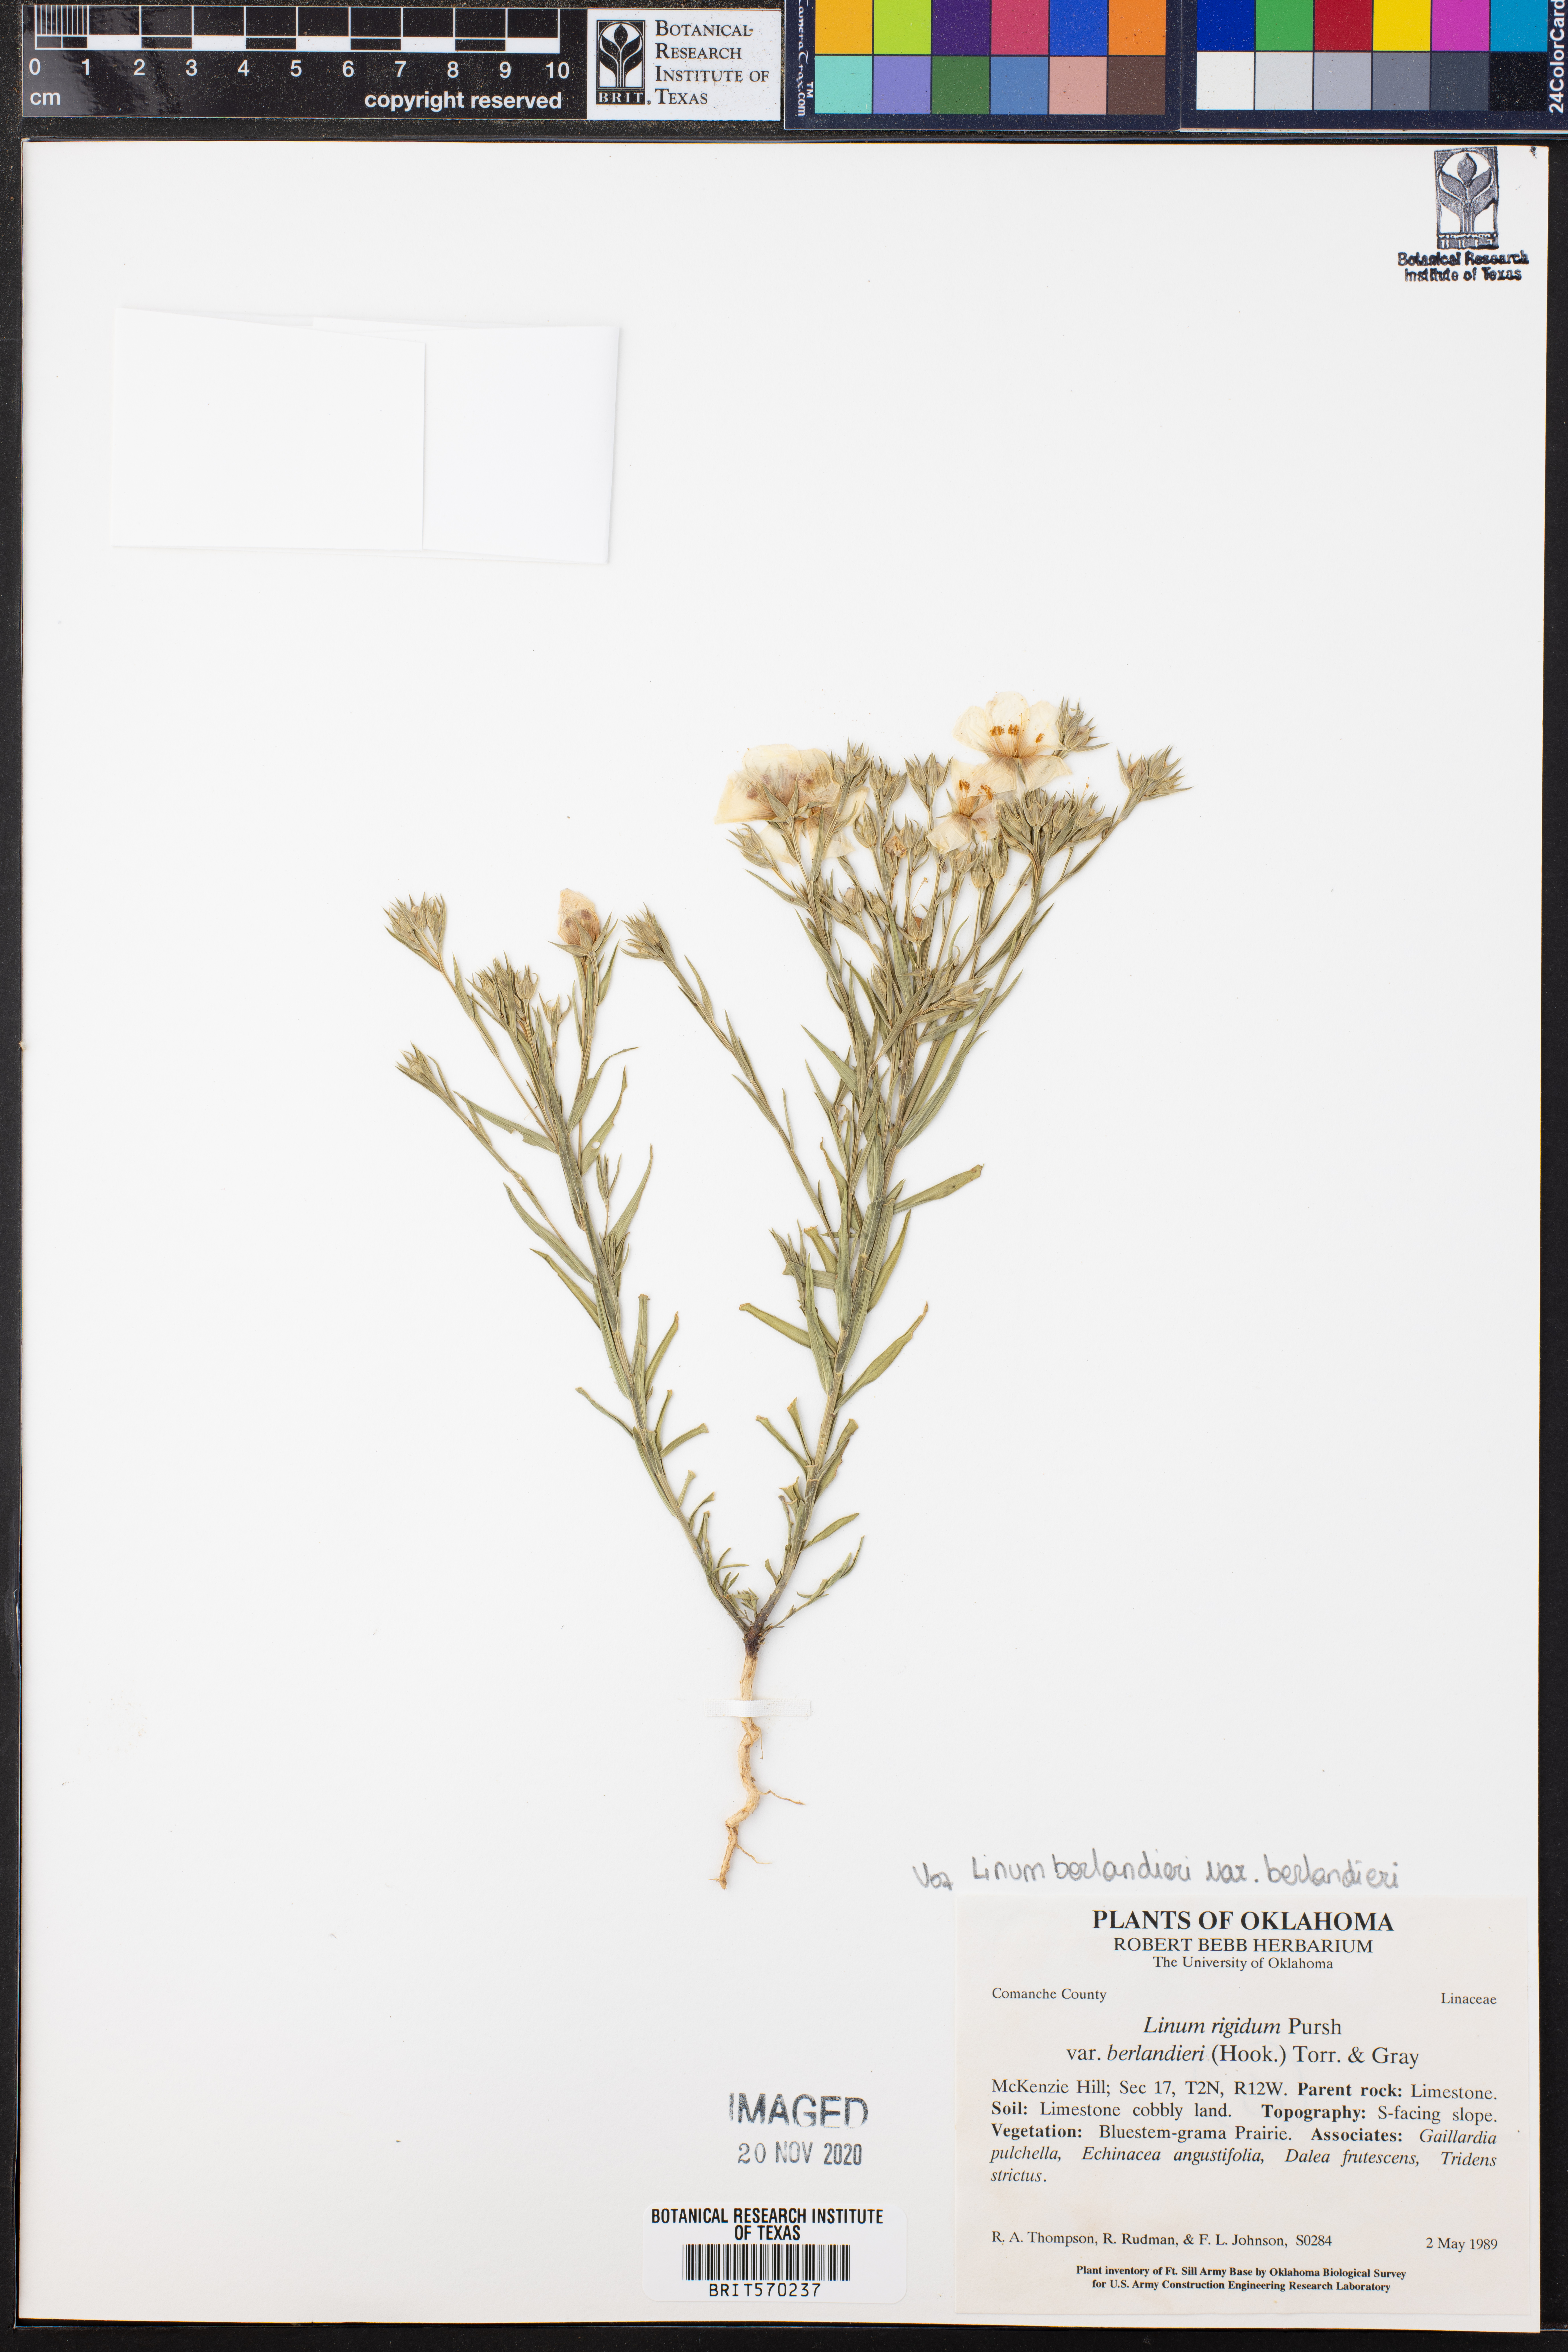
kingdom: Plantae
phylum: Tracheophyta
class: Magnoliopsida
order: Malpighiales
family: Linaceae
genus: Linum
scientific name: Linum berlandieri
